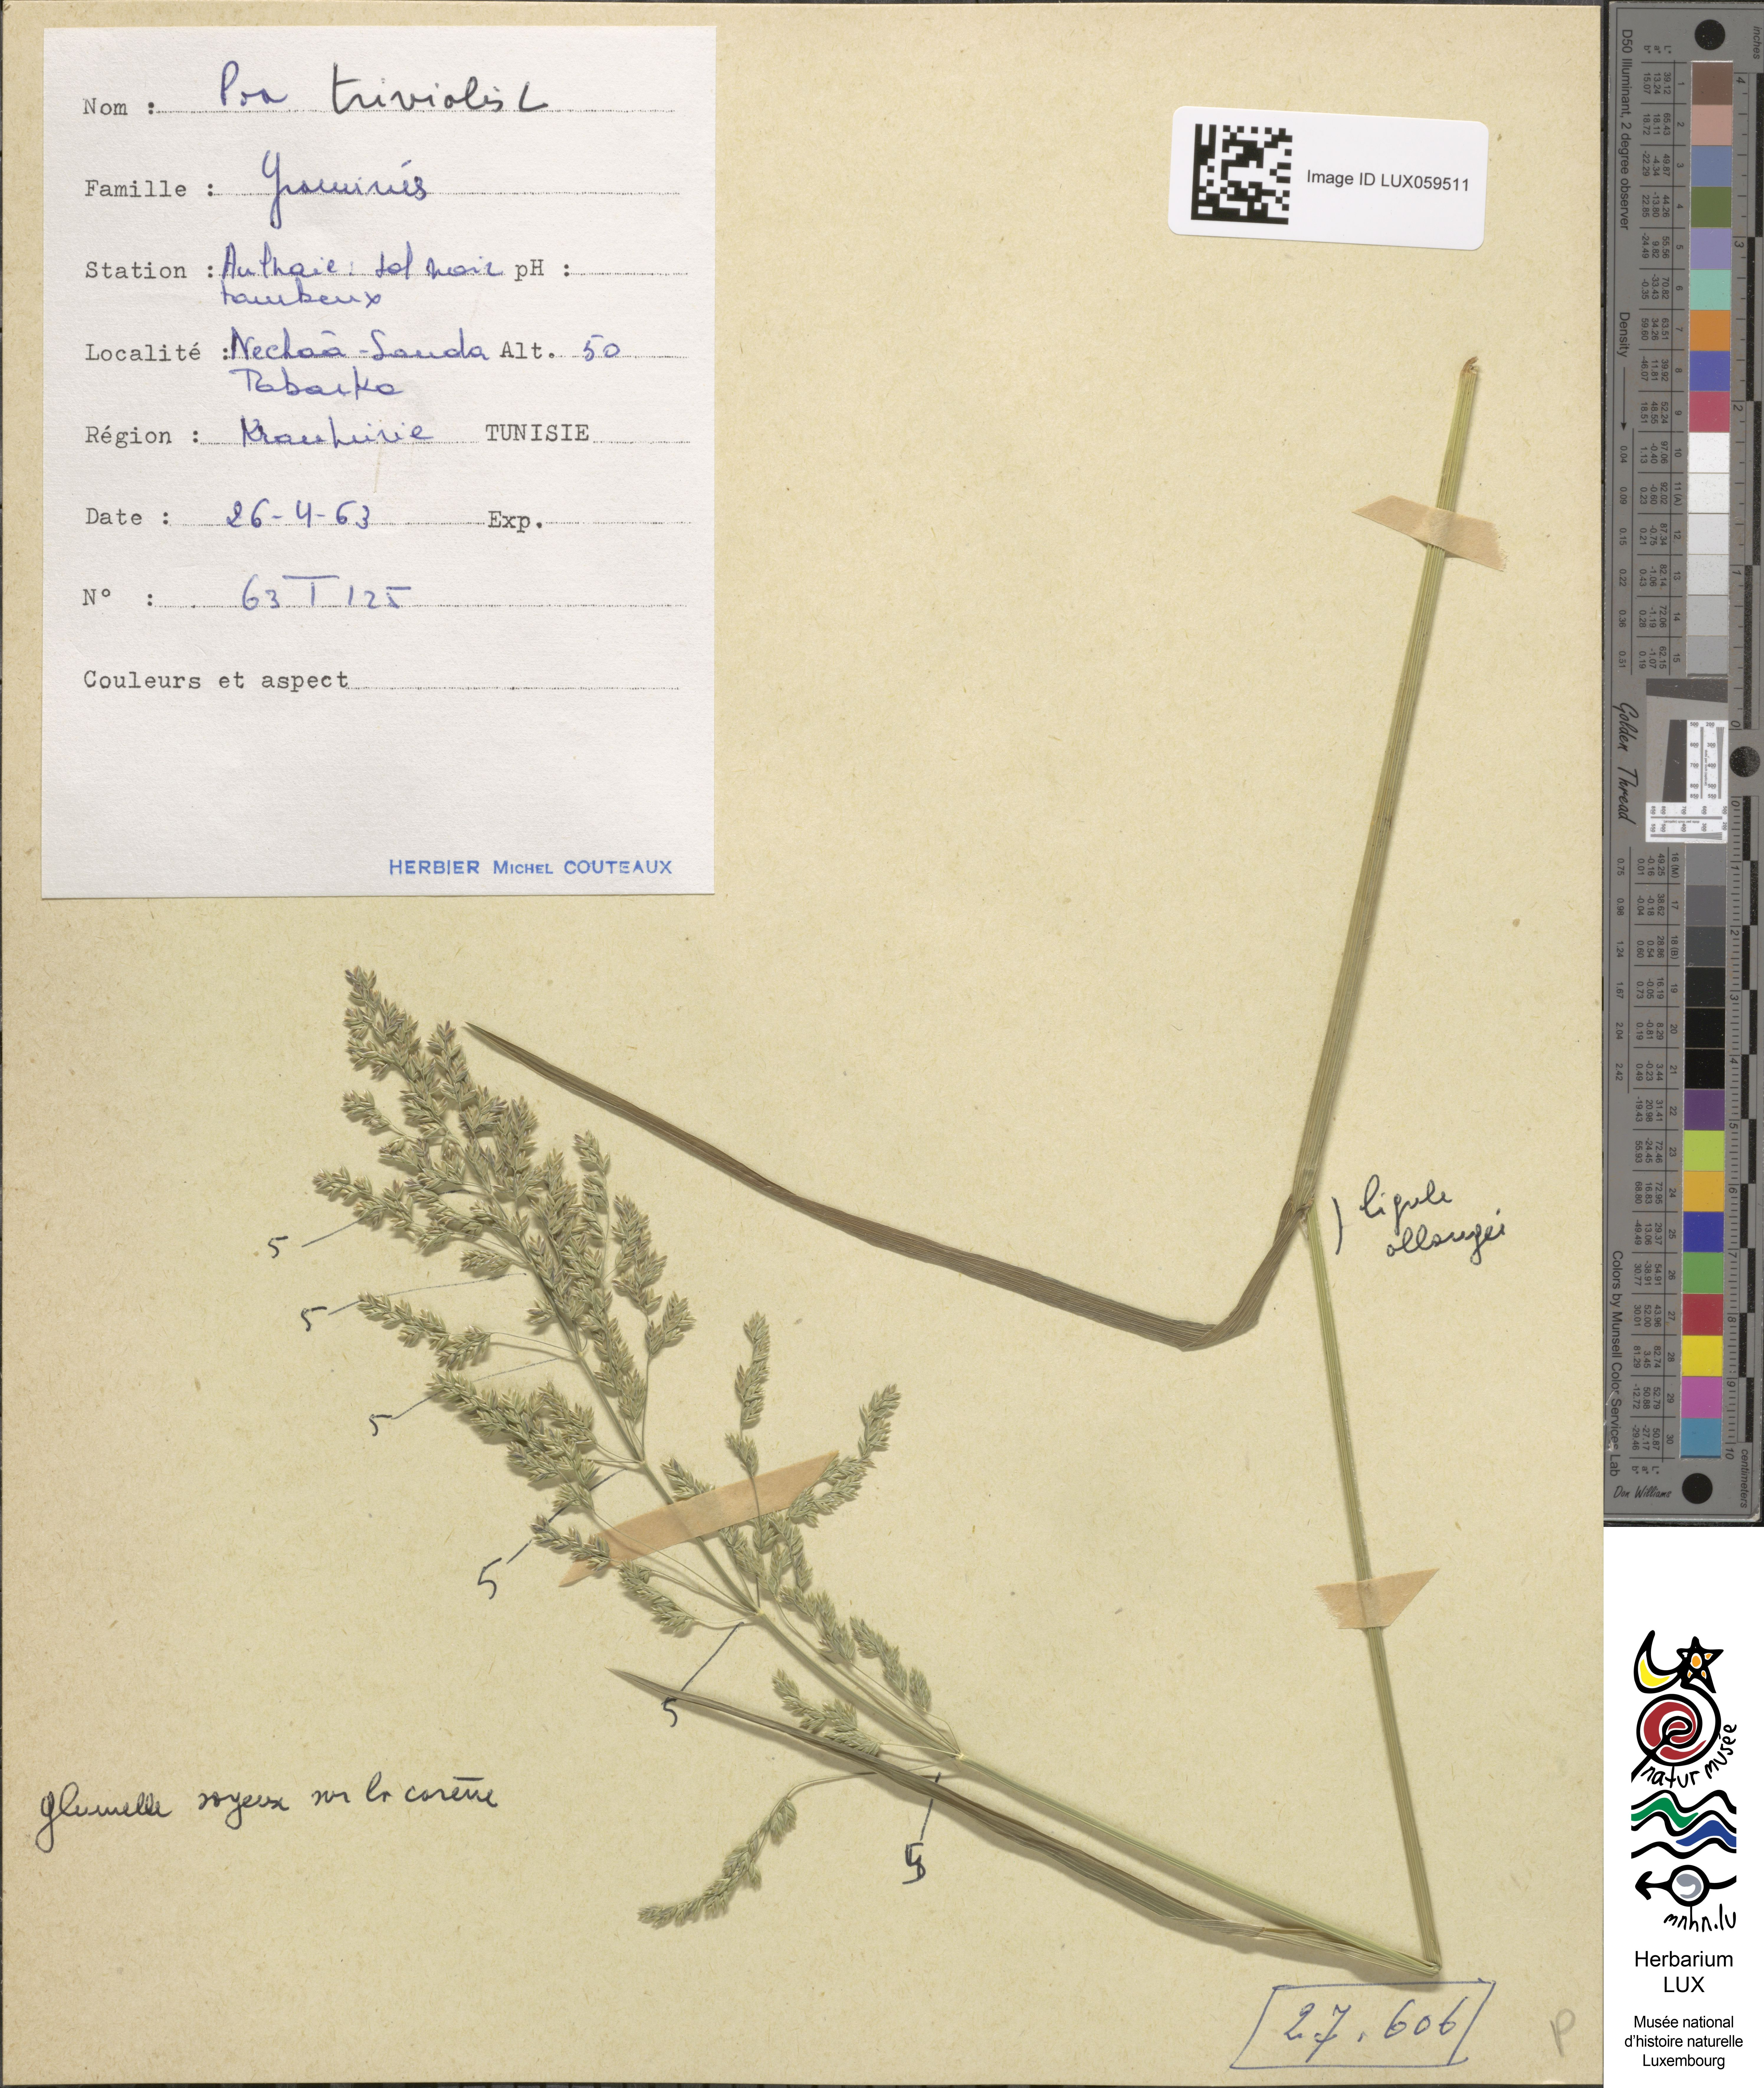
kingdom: Plantae
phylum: Tracheophyta
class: Liliopsida
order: Poales
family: Poaceae
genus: Poa
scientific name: Poa trivialis
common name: Rough bluegrass
